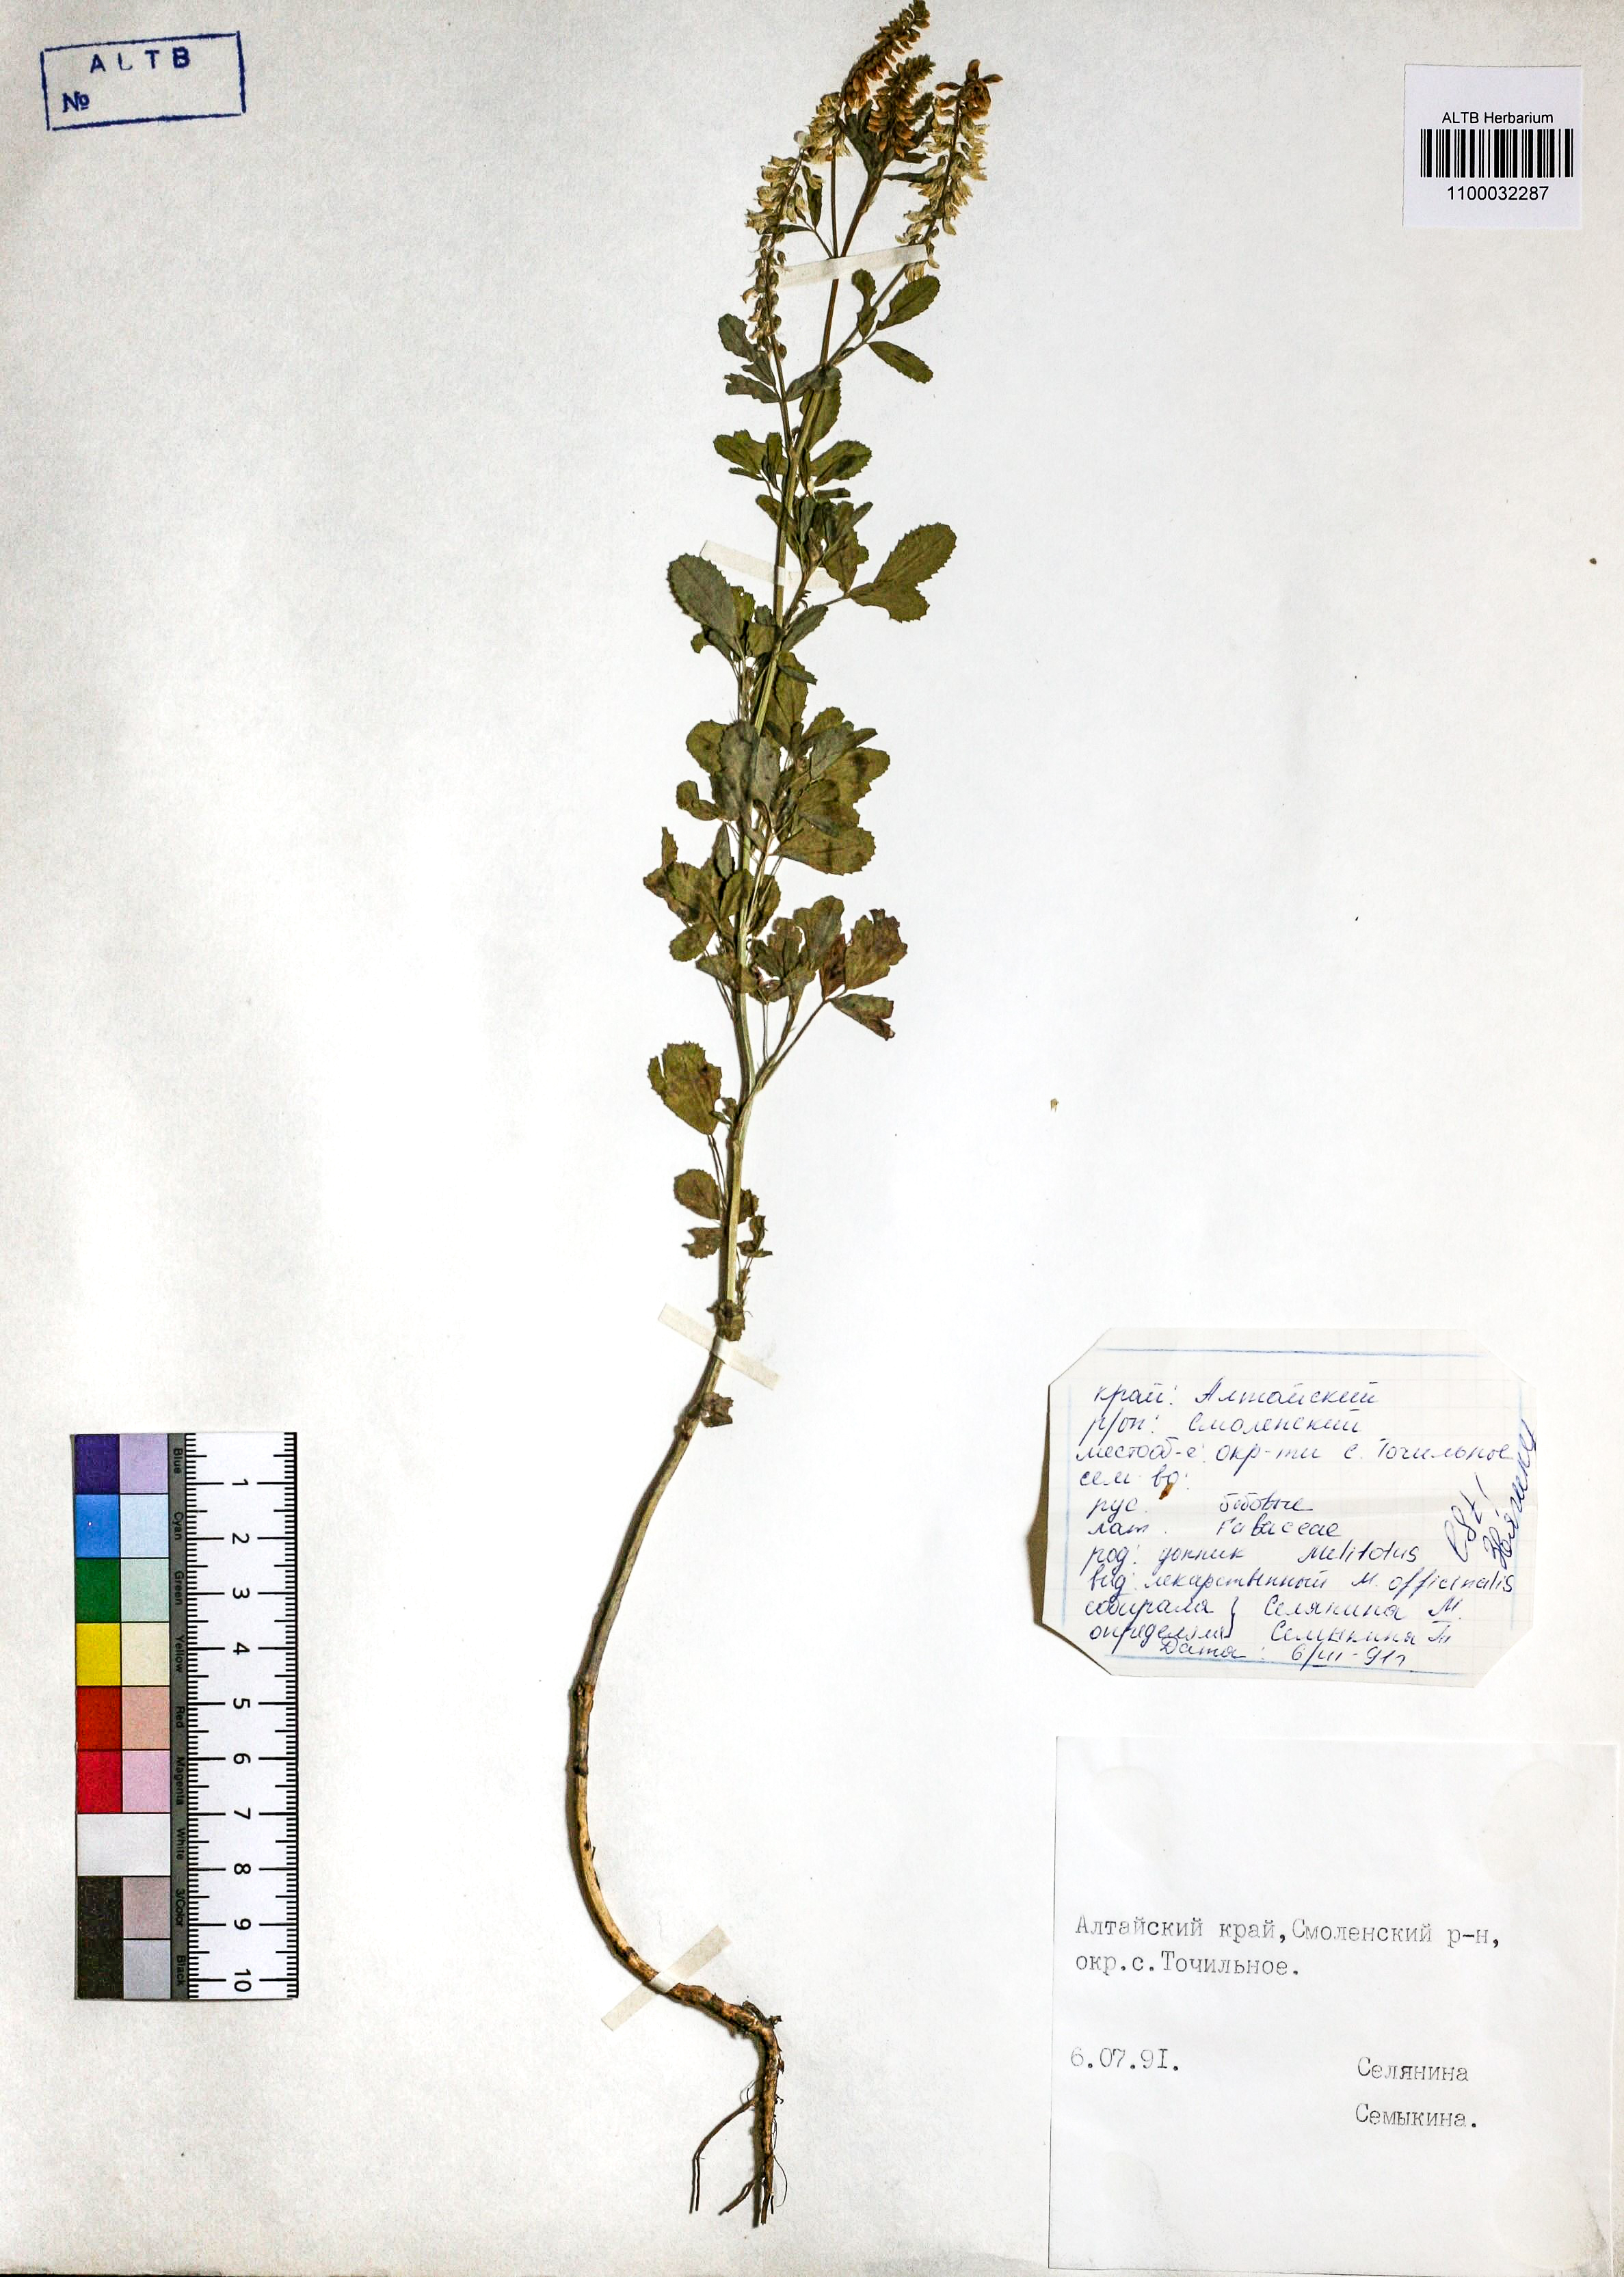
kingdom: Plantae
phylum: Tracheophyta
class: Magnoliopsida
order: Fabales
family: Fabaceae
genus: Melilotus
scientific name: Melilotus officinalis
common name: Sweetclover
